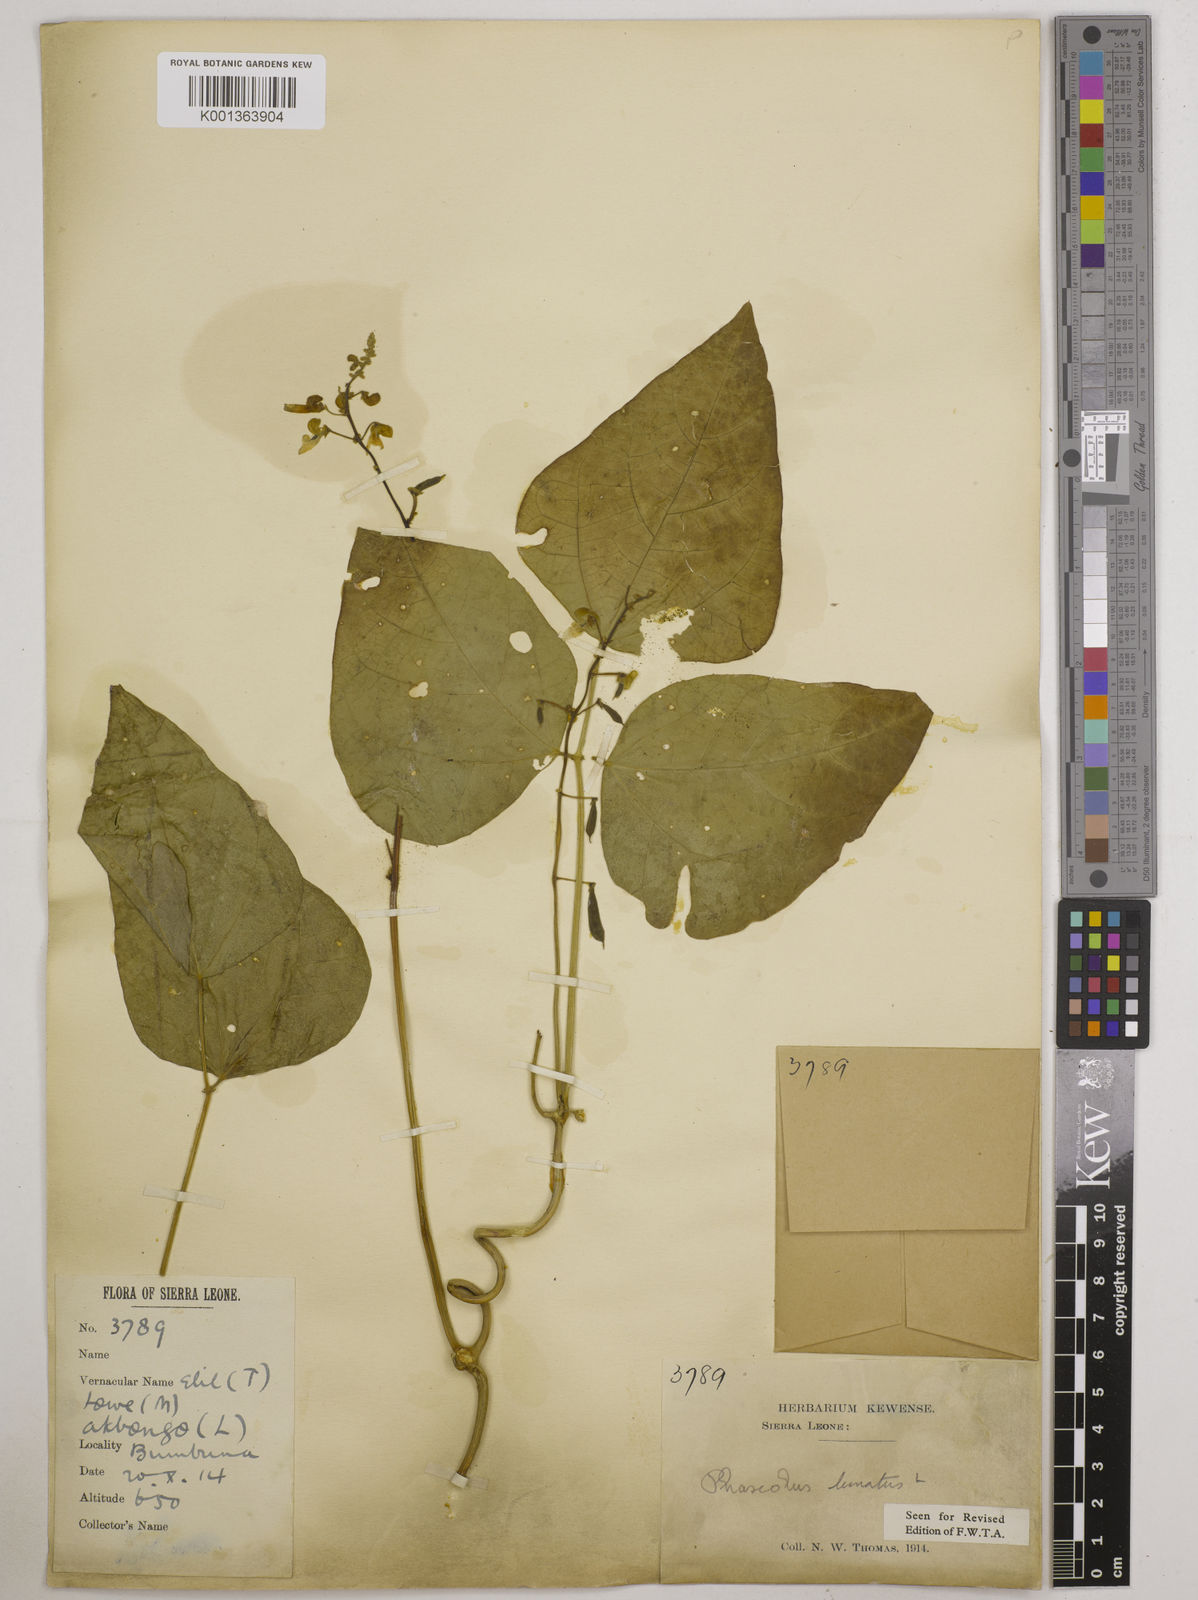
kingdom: Plantae
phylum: Tracheophyta
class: Magnoliopsida
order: Fabales
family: Fabaceae
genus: Phaseolus
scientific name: Phaseolus lunatus
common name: Sieva bean
